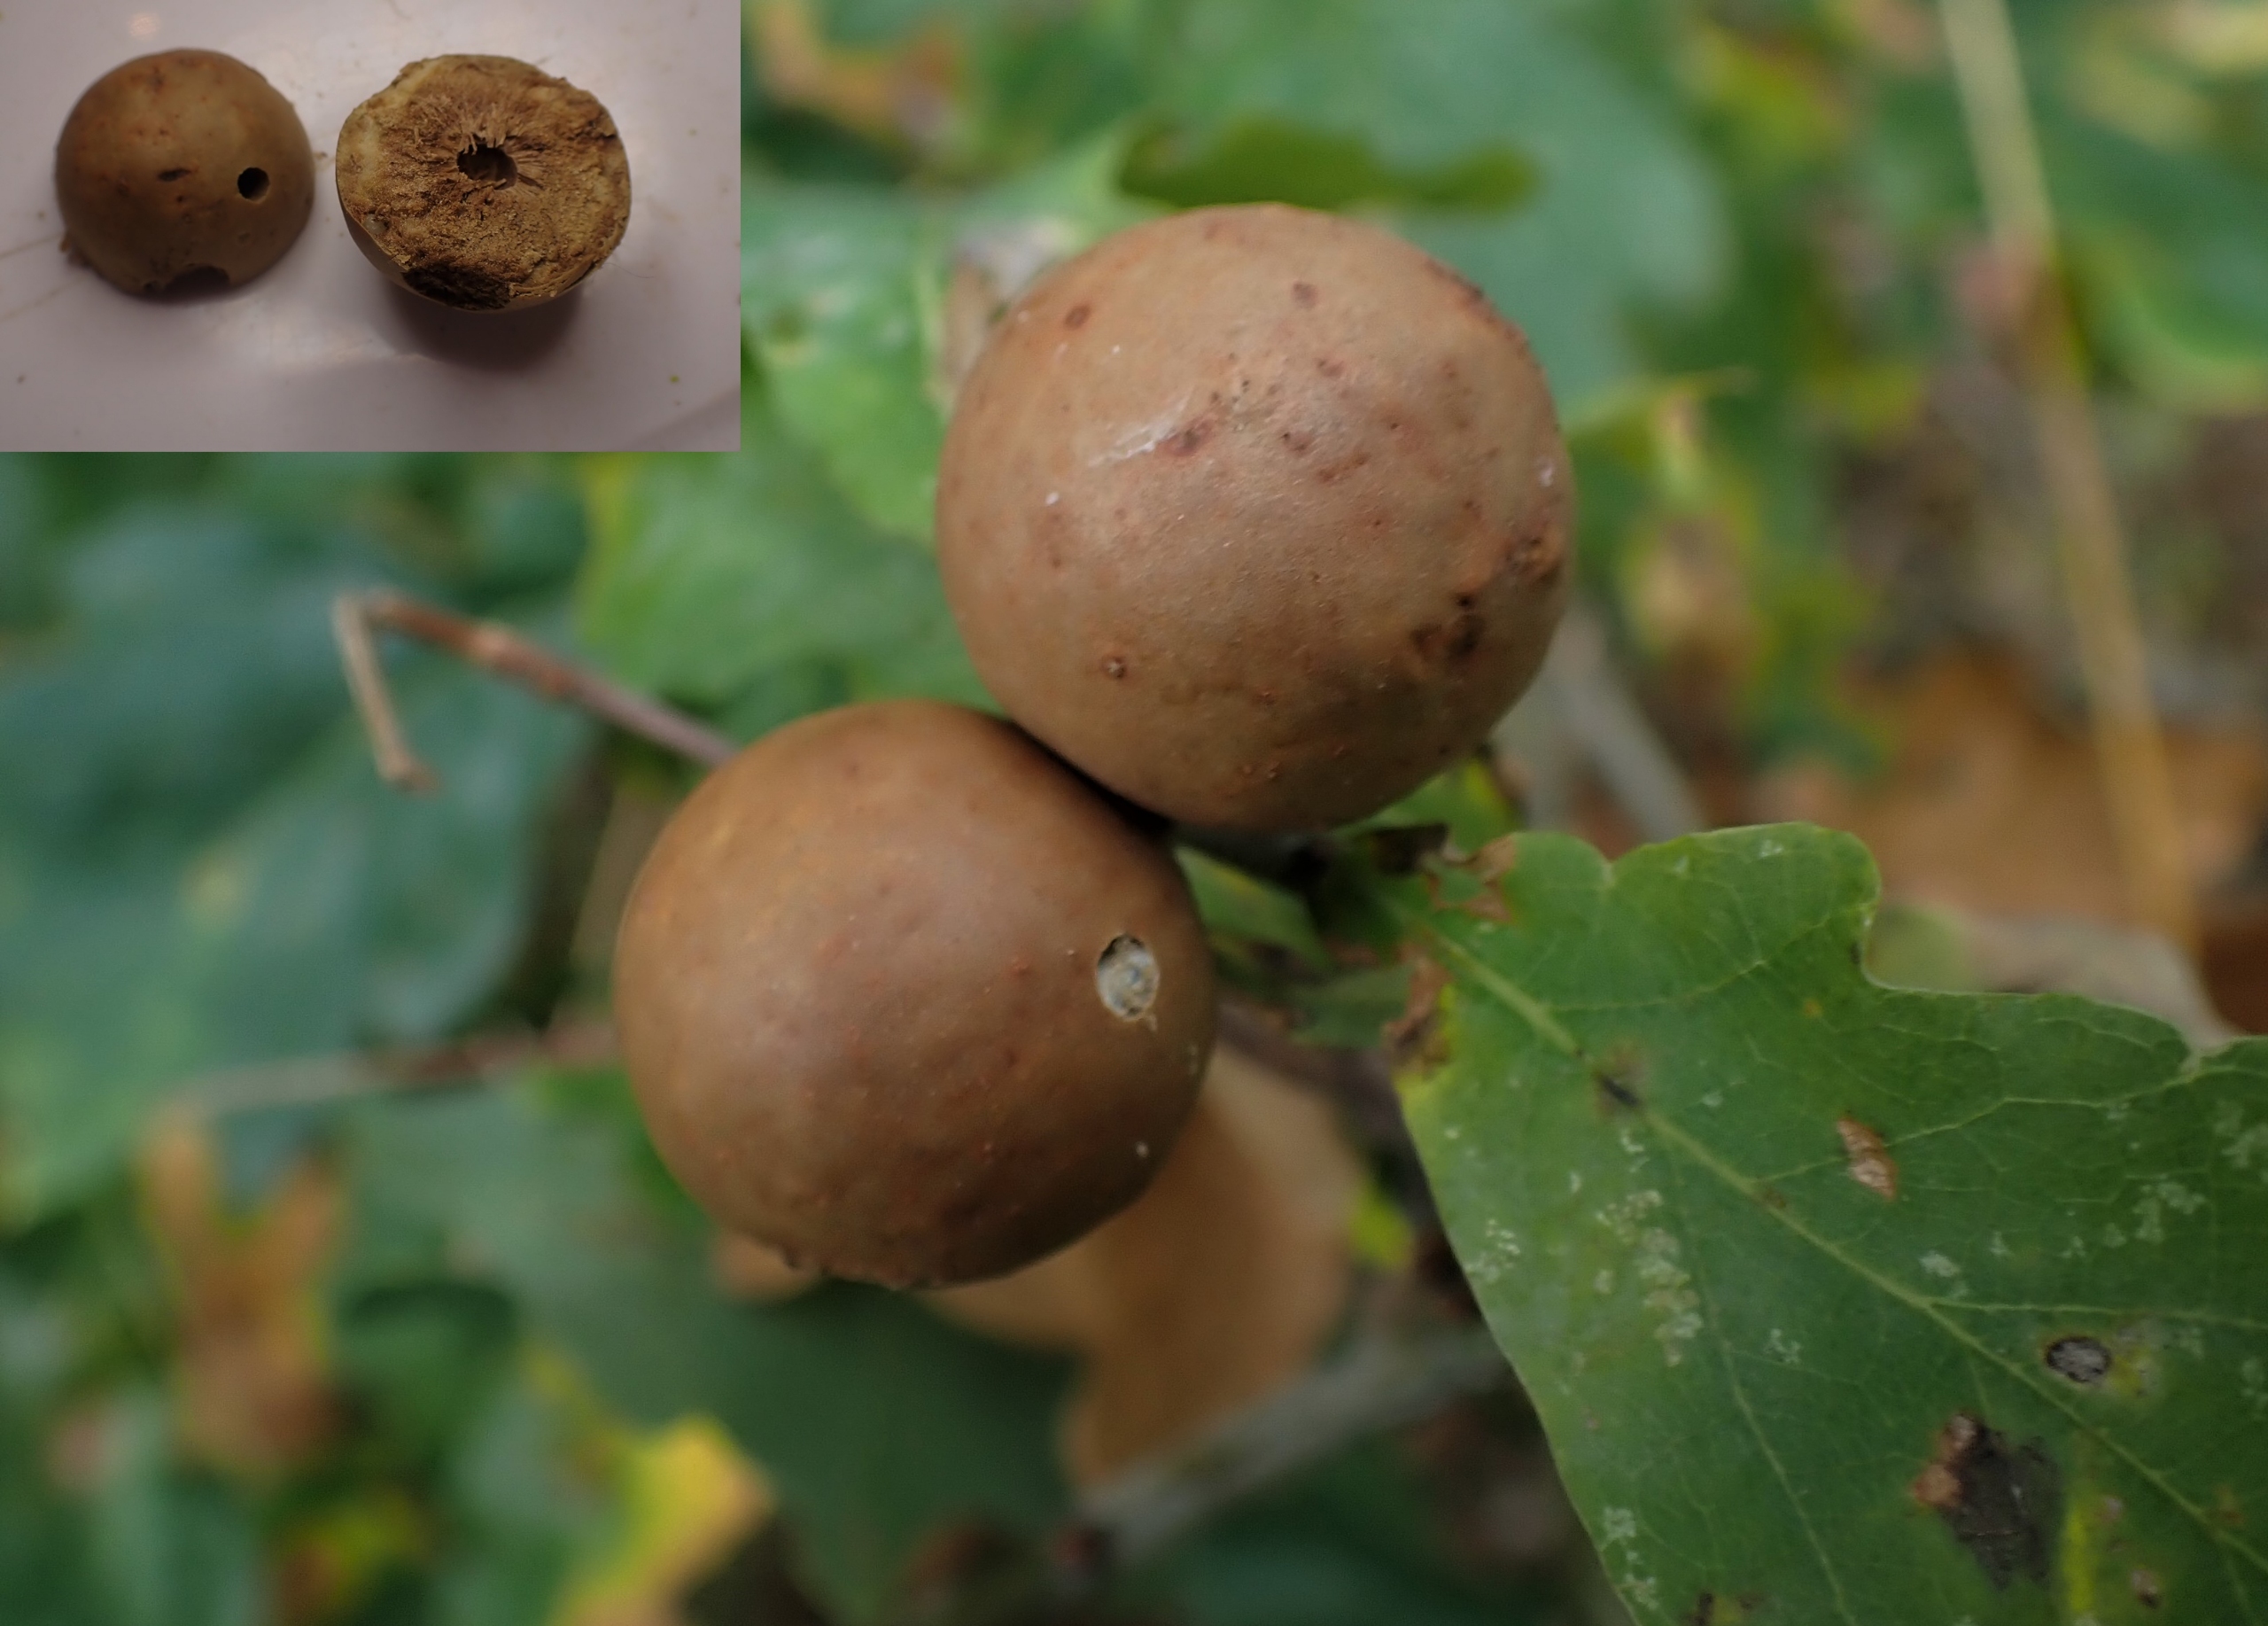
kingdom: Animalia
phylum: Arthropoda
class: Insecta
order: Hymenoptera
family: Cynipidae
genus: Andricus
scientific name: Andricus kollari
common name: Marmorkugle-galhveps
